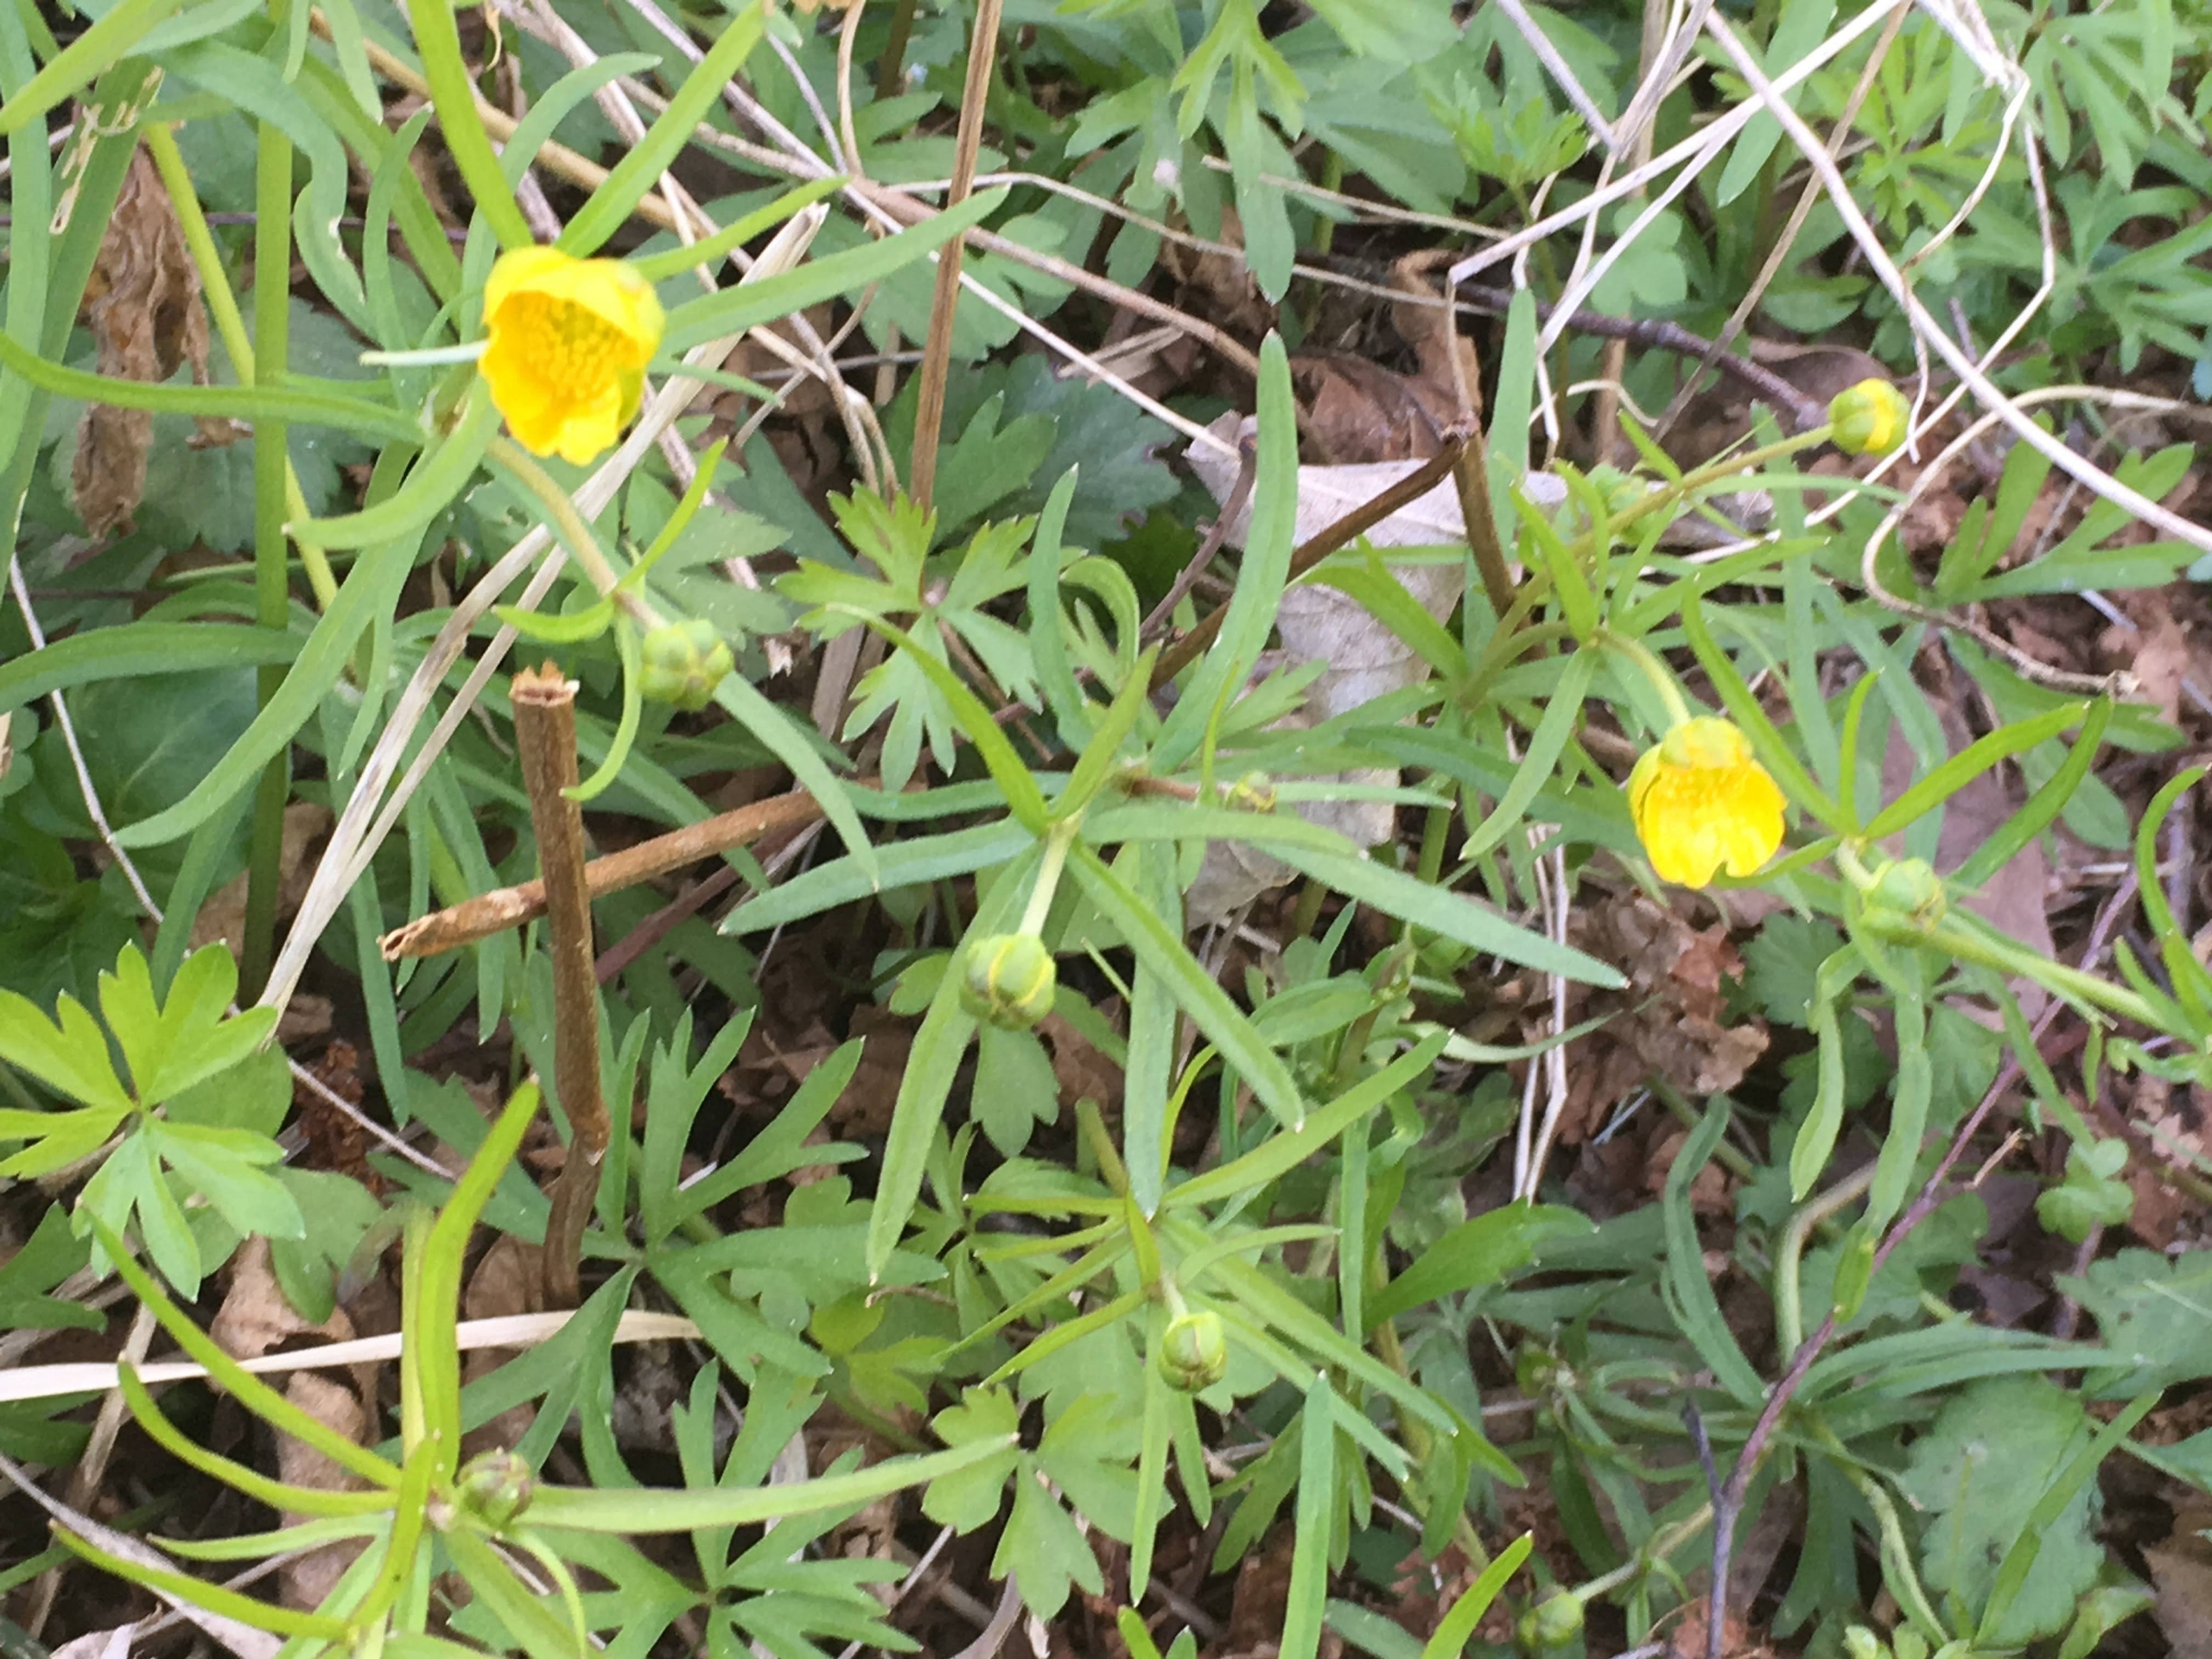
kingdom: Plantae
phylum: Tracheophyta
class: Magnoliopsida
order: Ranunculales
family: Ranunculaceae
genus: Ranunculus
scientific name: Ranunculus auricomus
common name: Nyrebladet ranunkel
